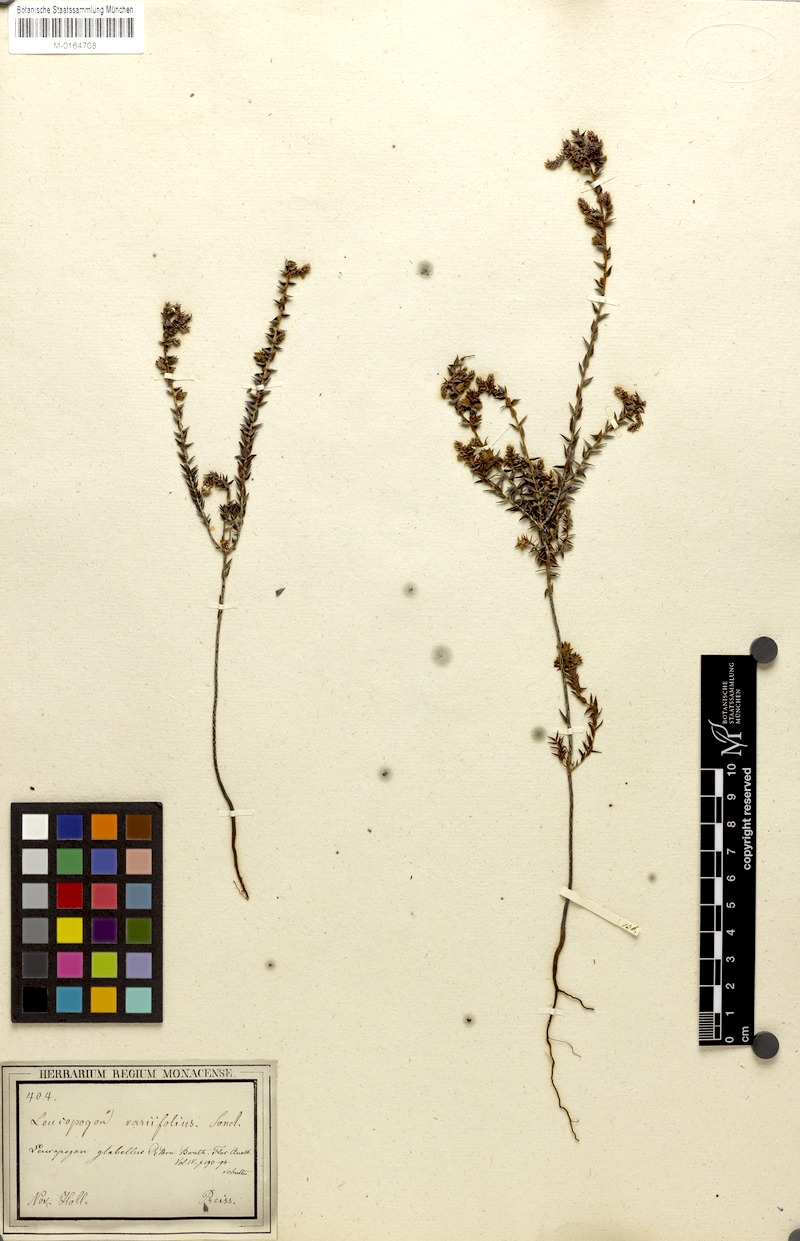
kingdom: Plantae
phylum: Tracheophyta
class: Magnoliopsida
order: Ericales
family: Ericaceae
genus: Leucopogon
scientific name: Leucopogon glabellus
